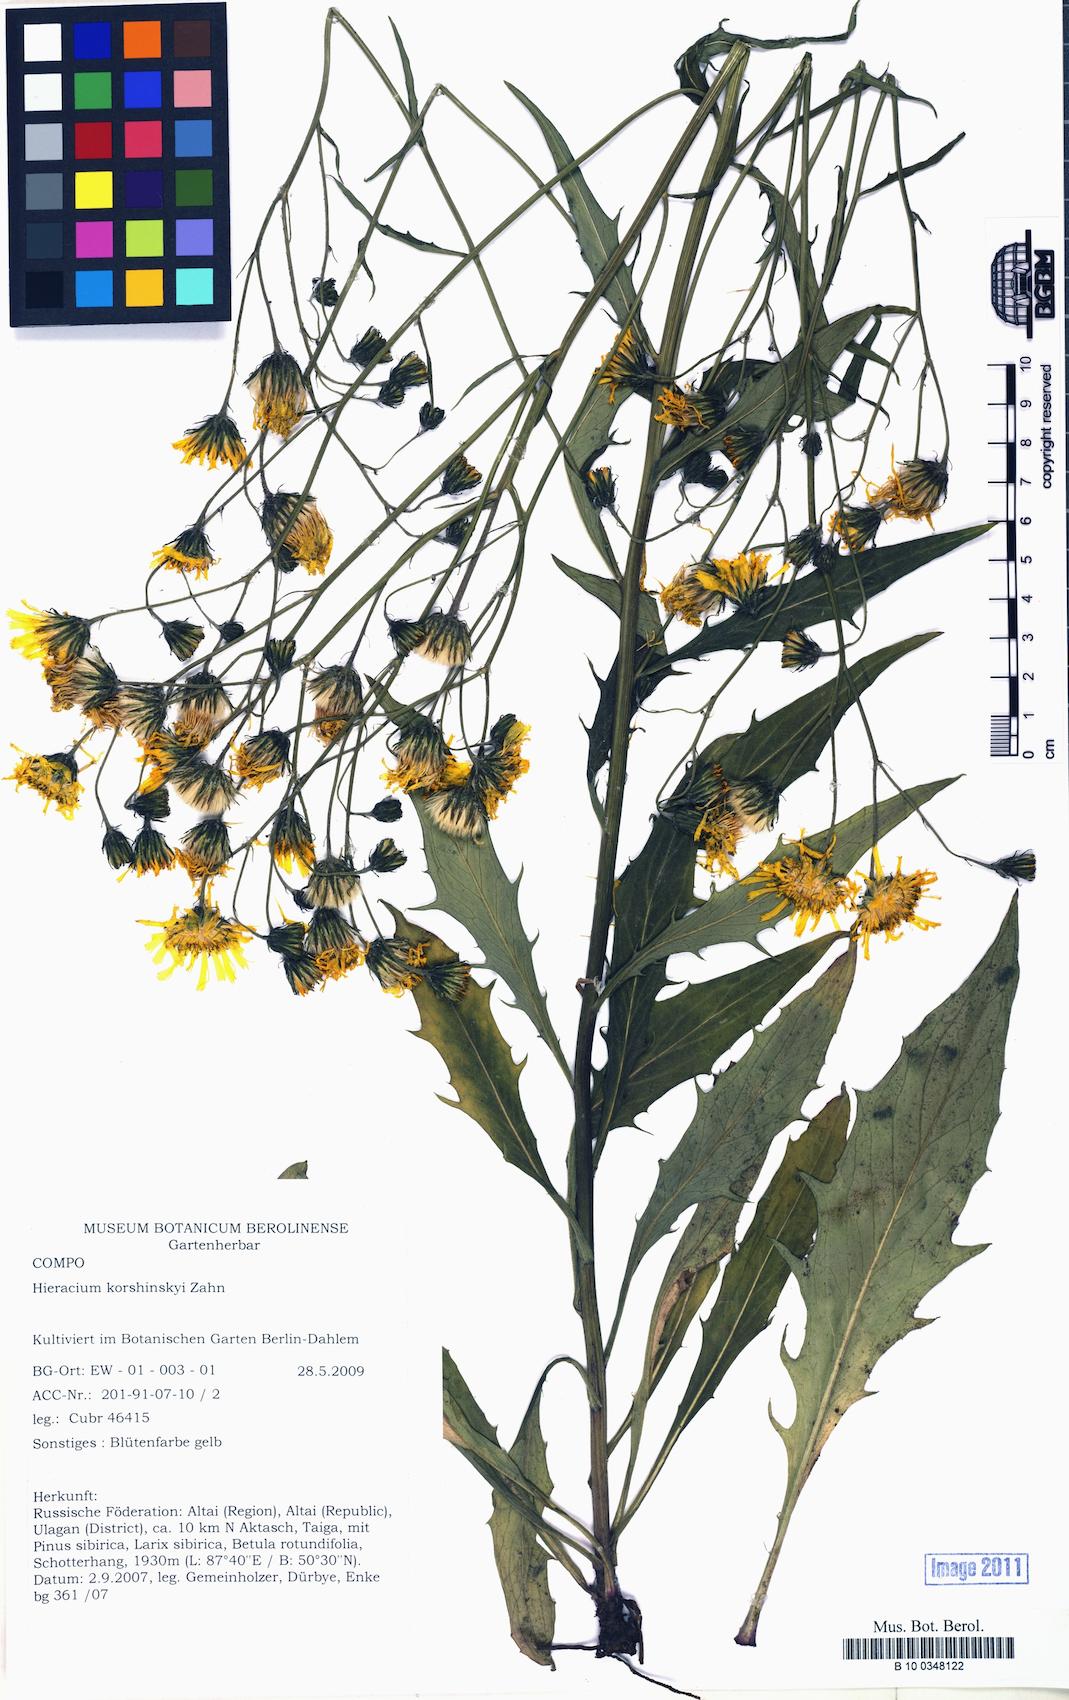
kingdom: Plantae
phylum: Tracheophyta
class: Magnoliopsida
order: Asterales
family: Asteraceae
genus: Hieracium
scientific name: Hieracium korshinskyi
